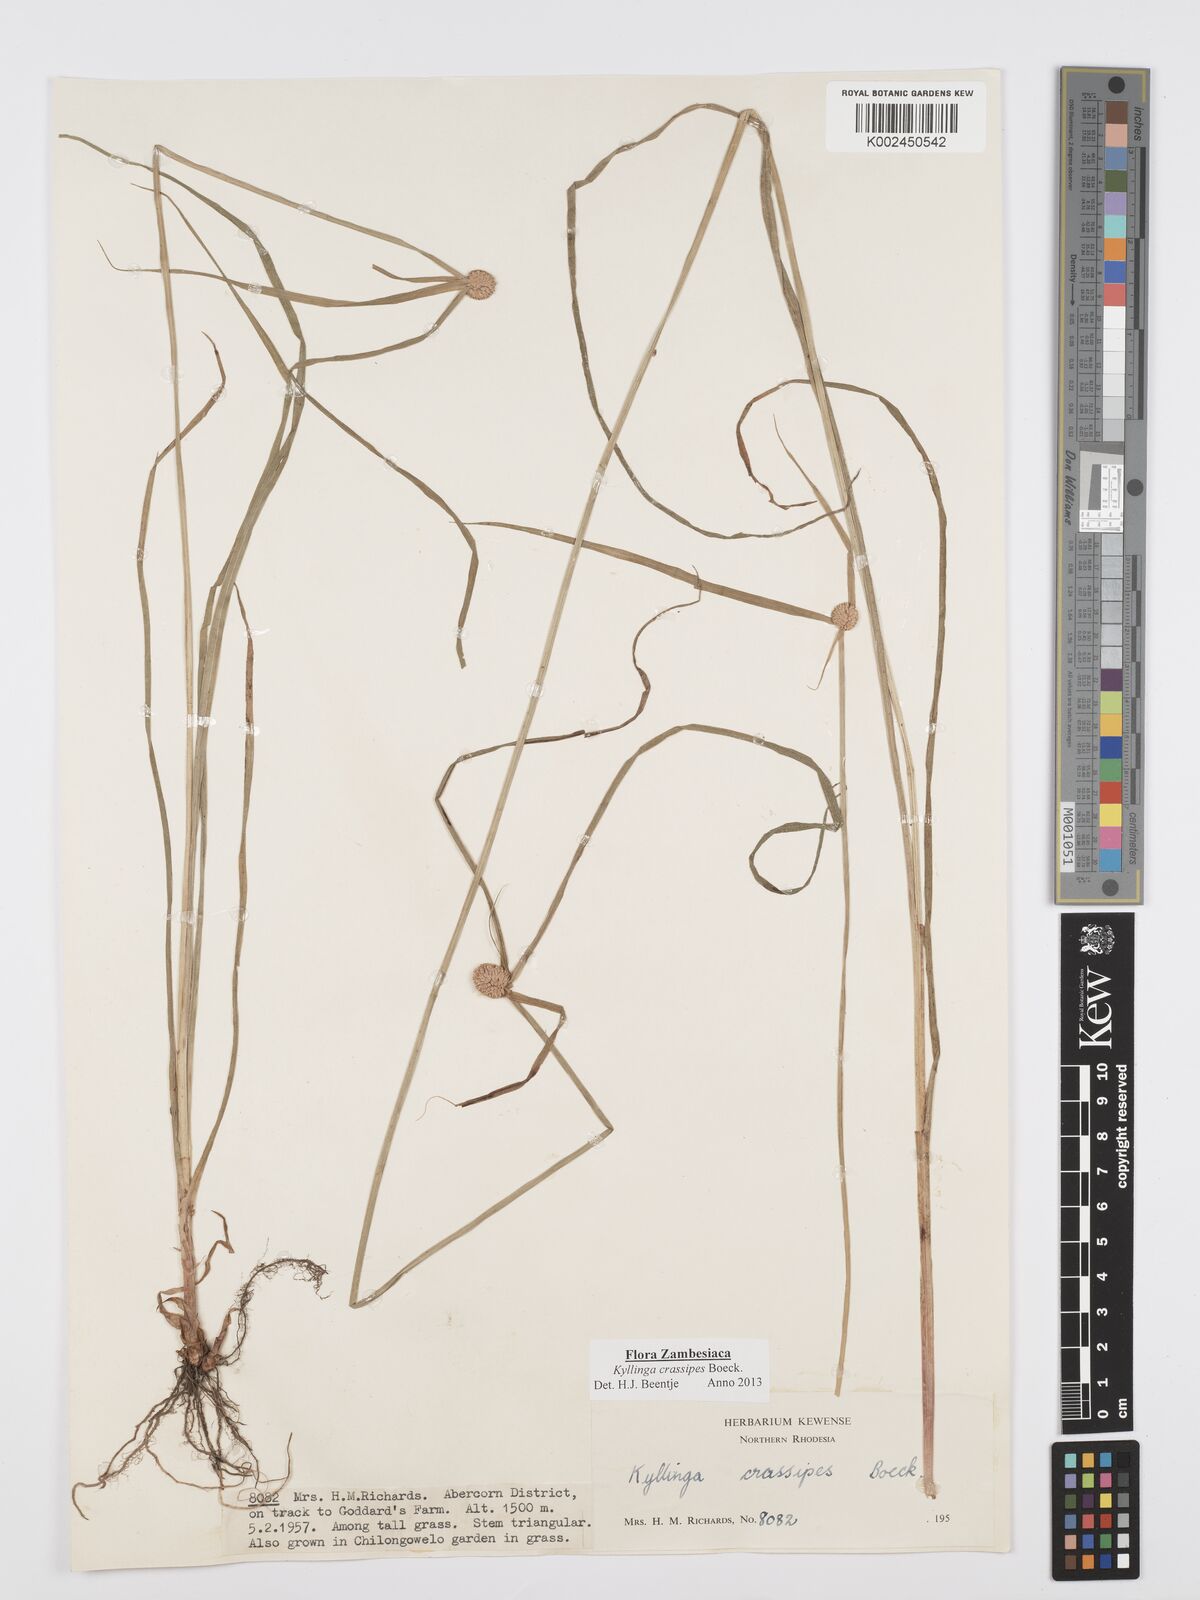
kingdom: Plantae
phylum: Tracheophyta
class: Liliopsida
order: Poales
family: Cyperaceae
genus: Cyperus
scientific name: Cyperus crassipes
